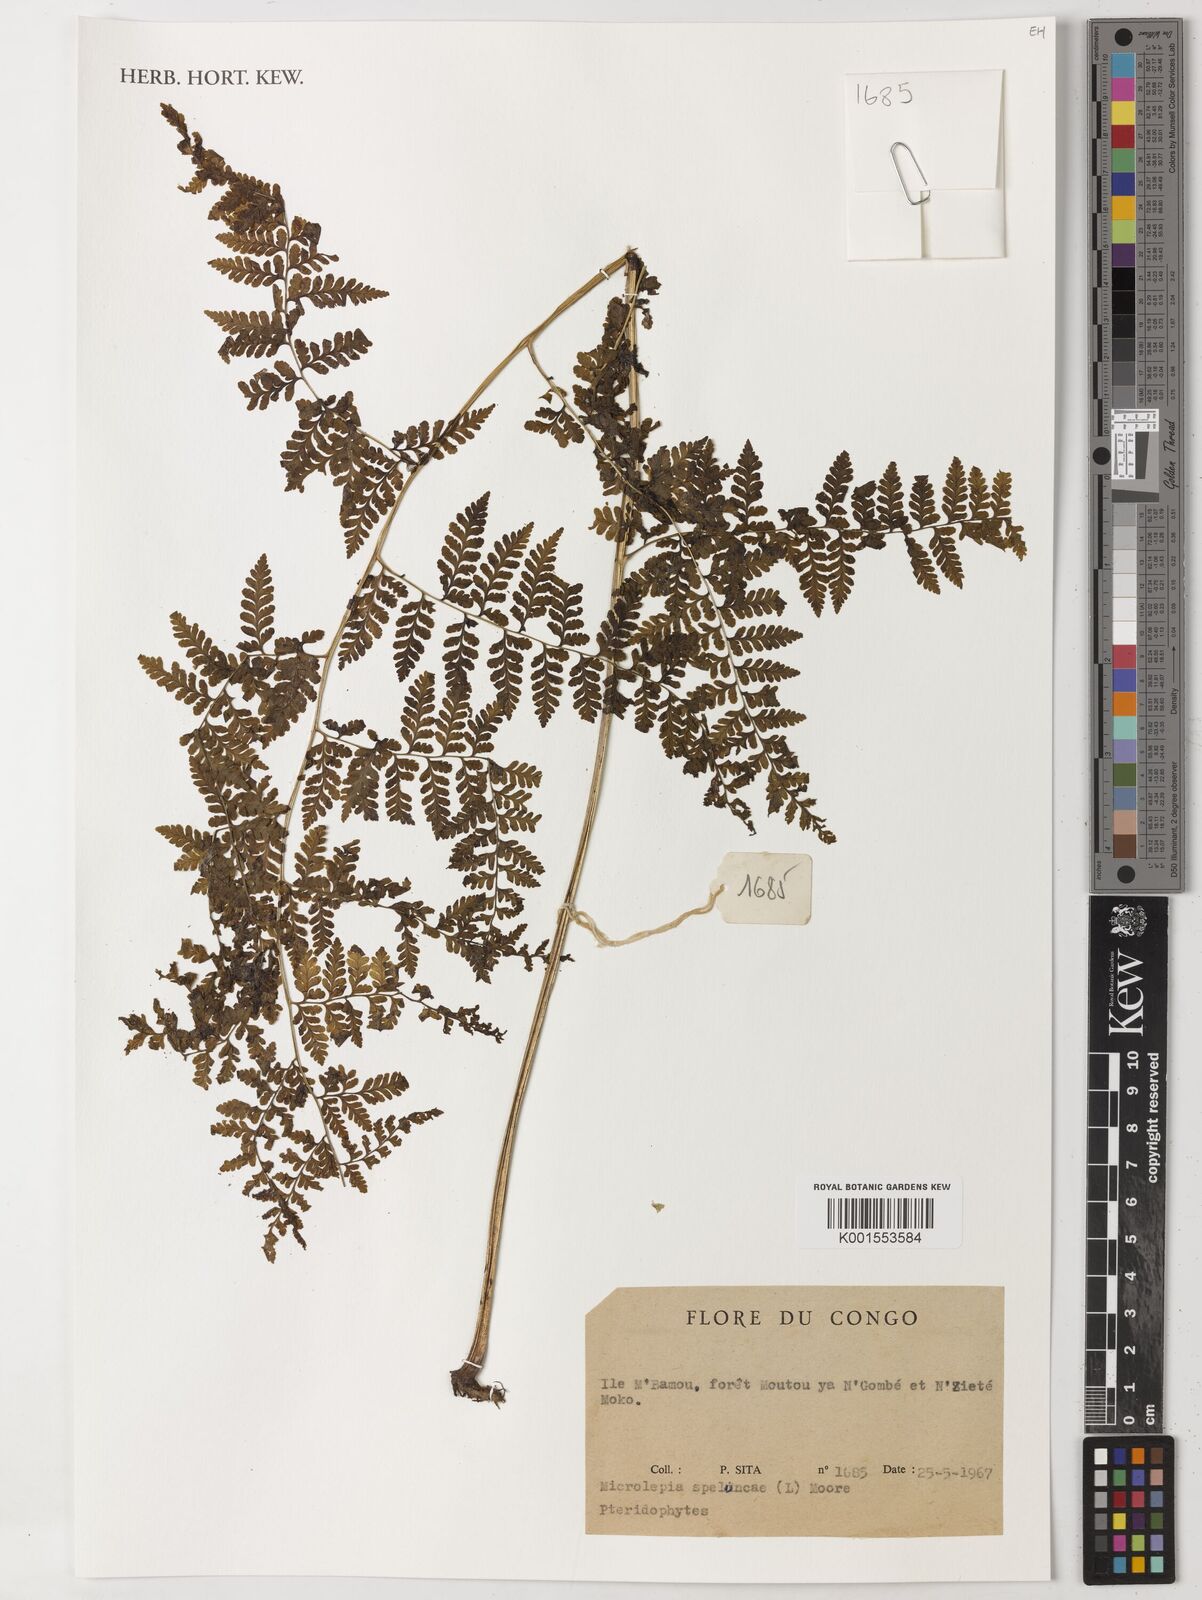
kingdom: Plantae
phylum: Tracheophyta
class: Polypodiopsida
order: Polypodiales
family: Dennstaedtiaceae
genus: Microlepia
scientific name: Microlepia speluncae
